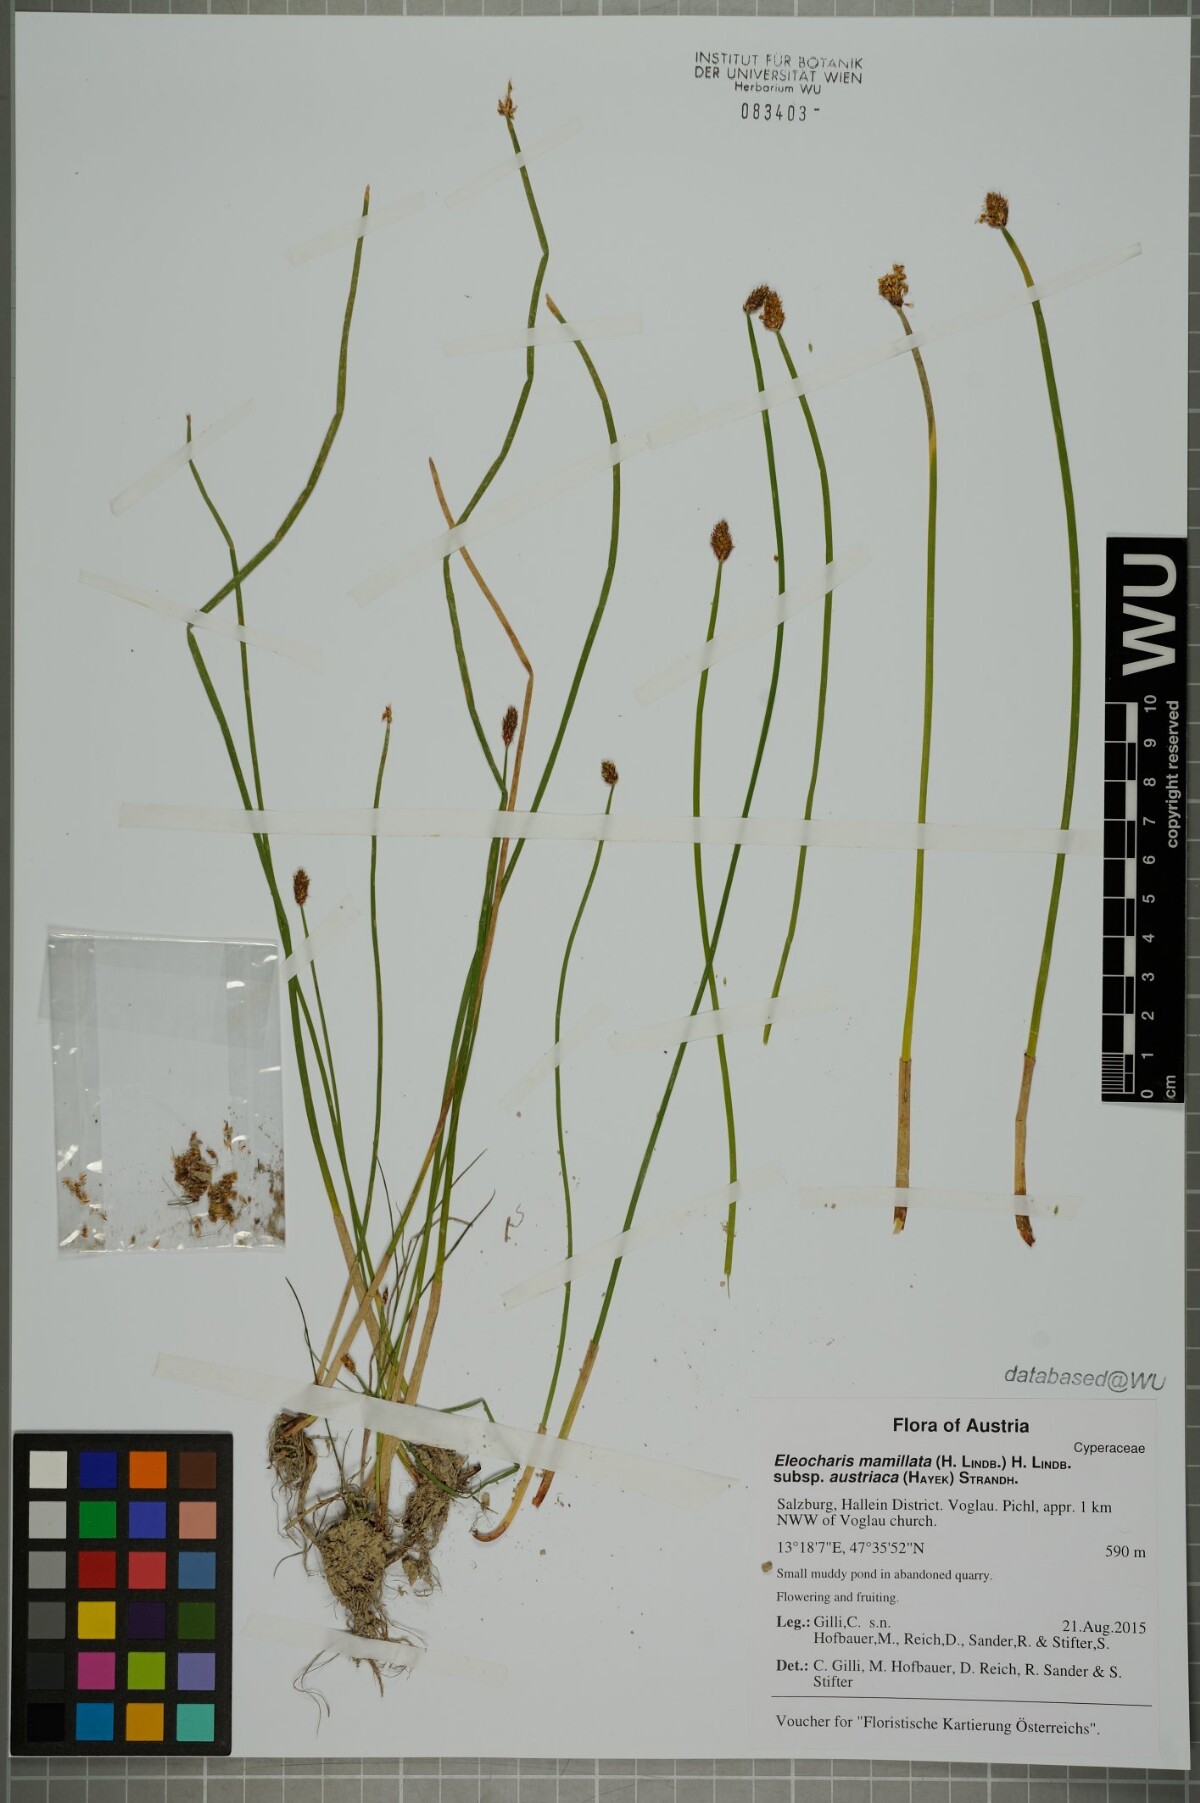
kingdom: Plantae
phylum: Tracheophyta
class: Liliopsida
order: Poales
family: Cyperaceae
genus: Eleocharis
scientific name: Eleocharis mamillata
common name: Northern spike-rush
